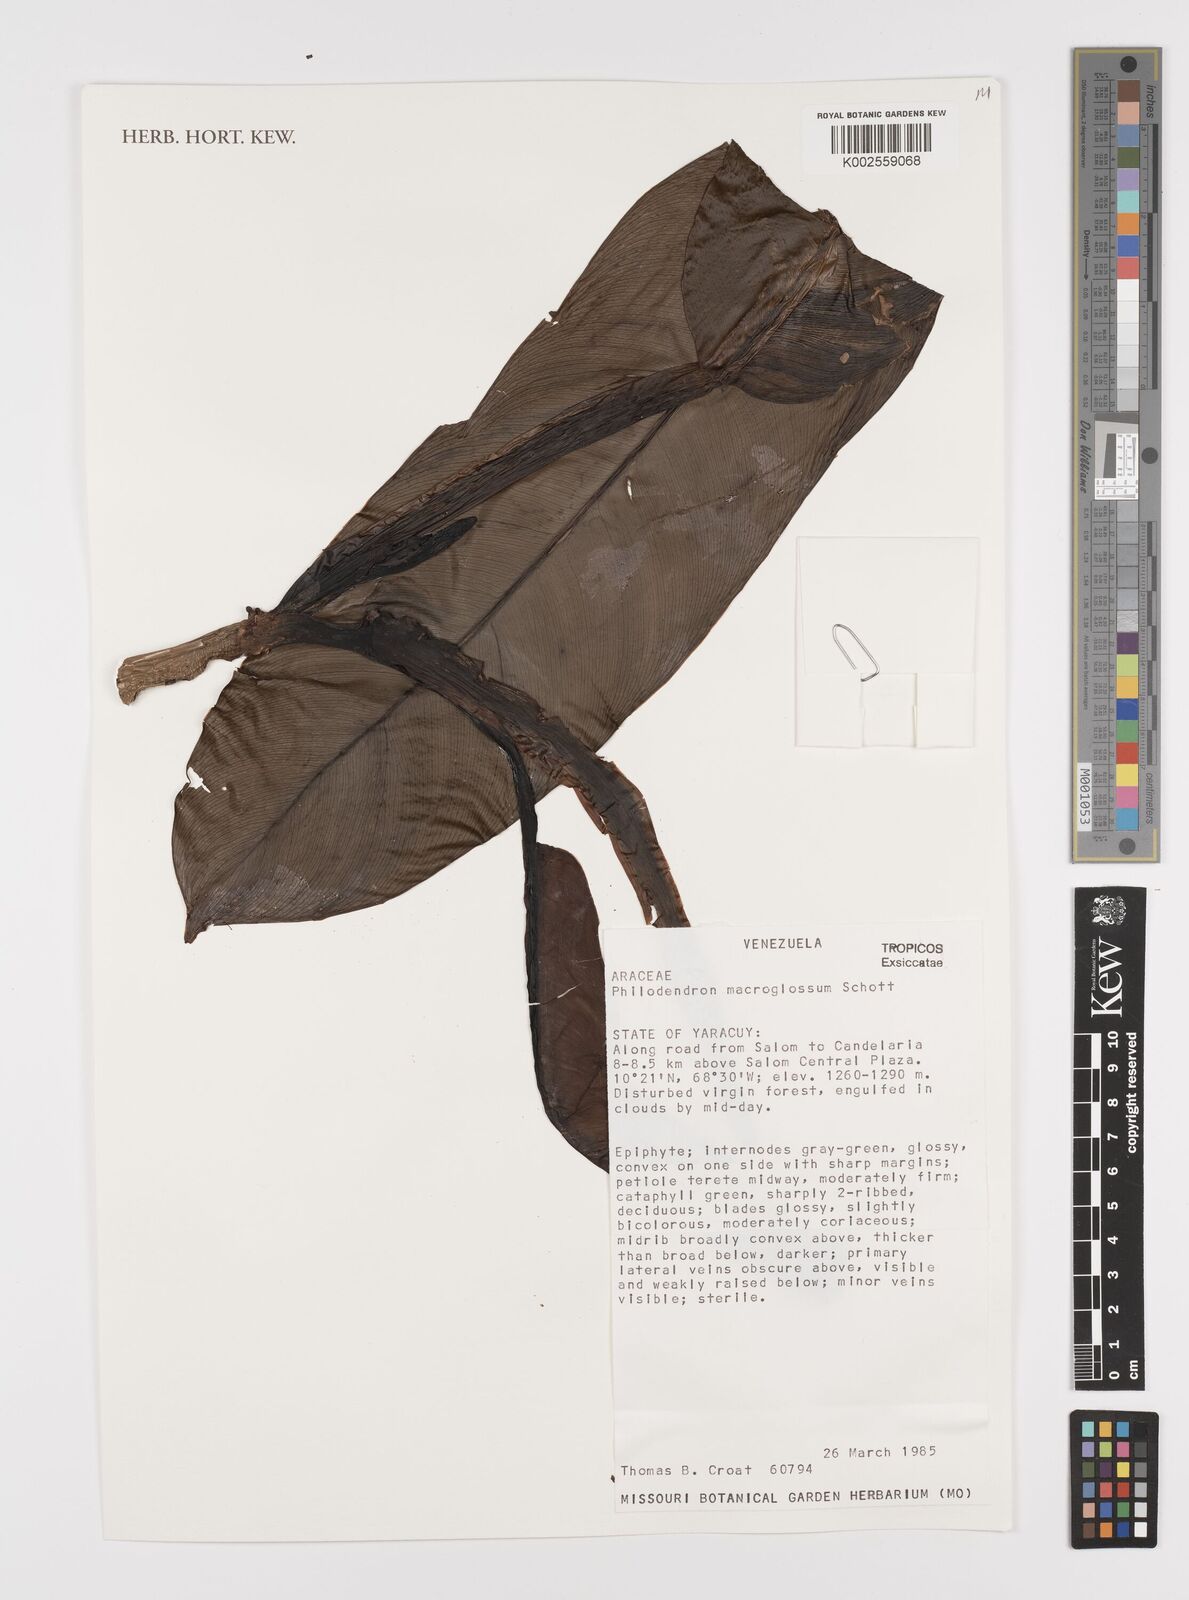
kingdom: Plantae
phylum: Tracheophyta
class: Liliopsida
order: Alismatales
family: Araceae
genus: Philodendron
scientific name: Philodendron macroglossum
